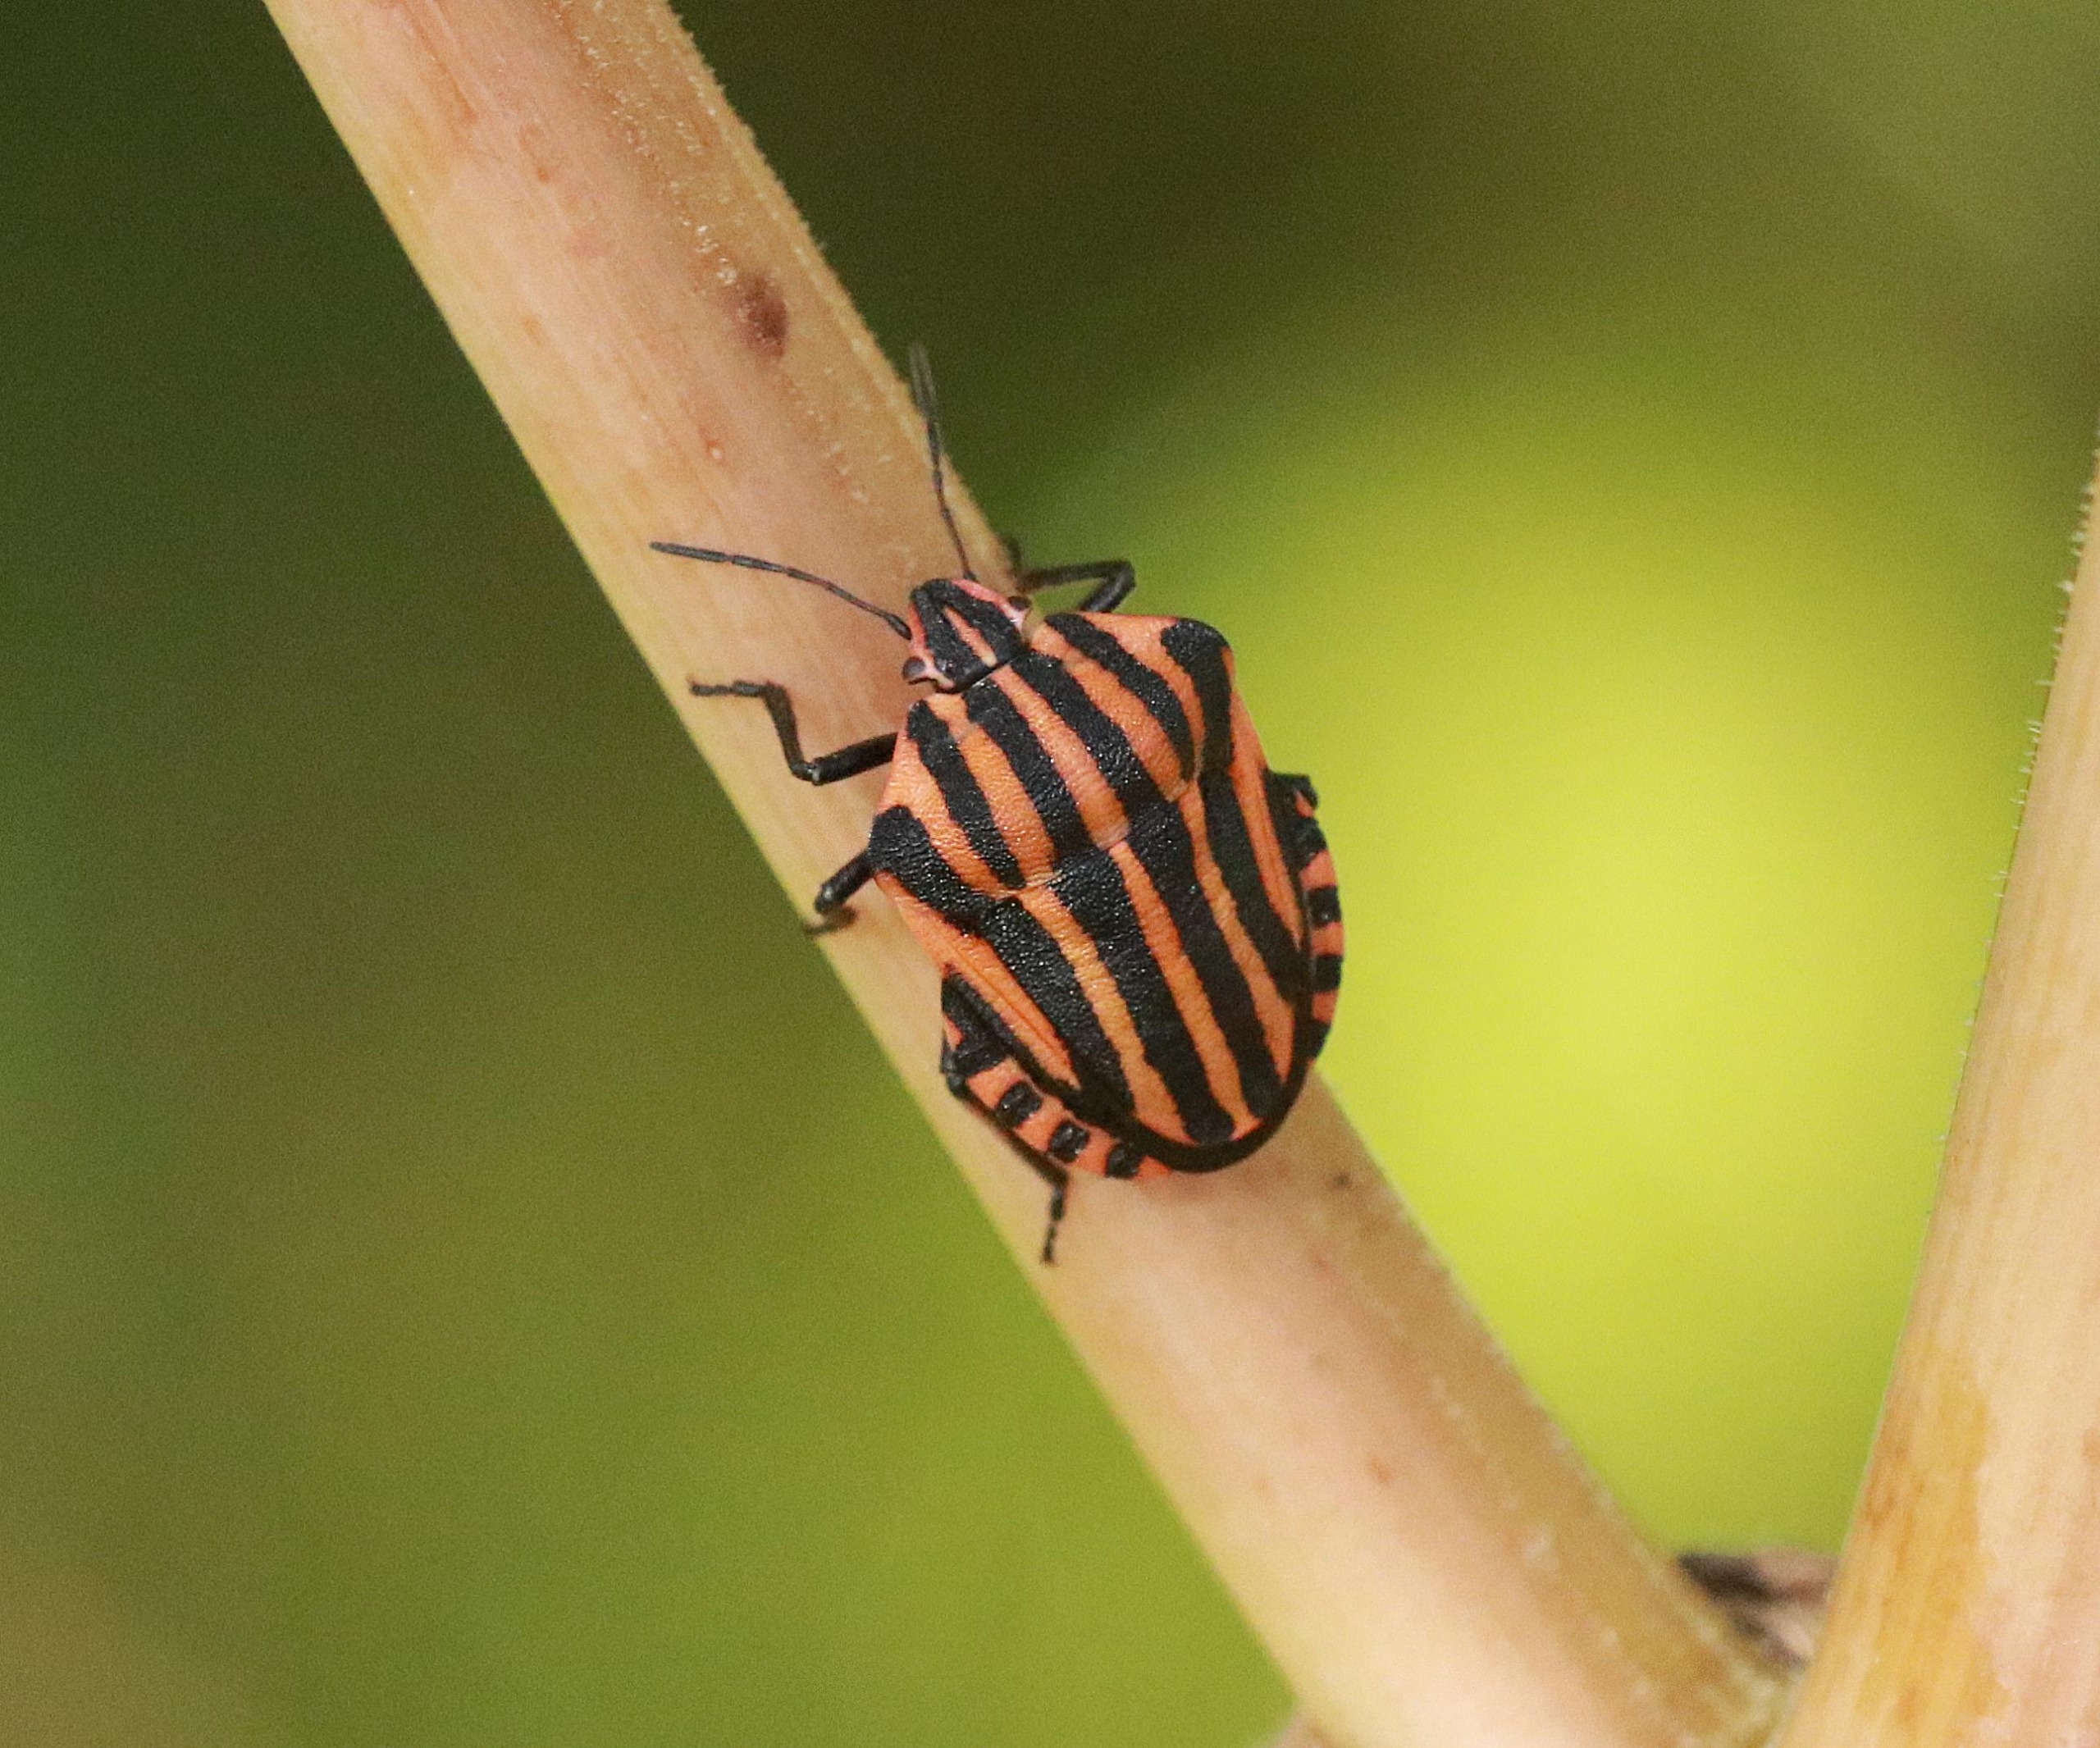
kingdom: Animalia
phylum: Arthropoda
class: Insecta
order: Hemiptera
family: Pentatomidae
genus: Graphosoma
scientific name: Graphosoma italicum
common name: Stribetæge
